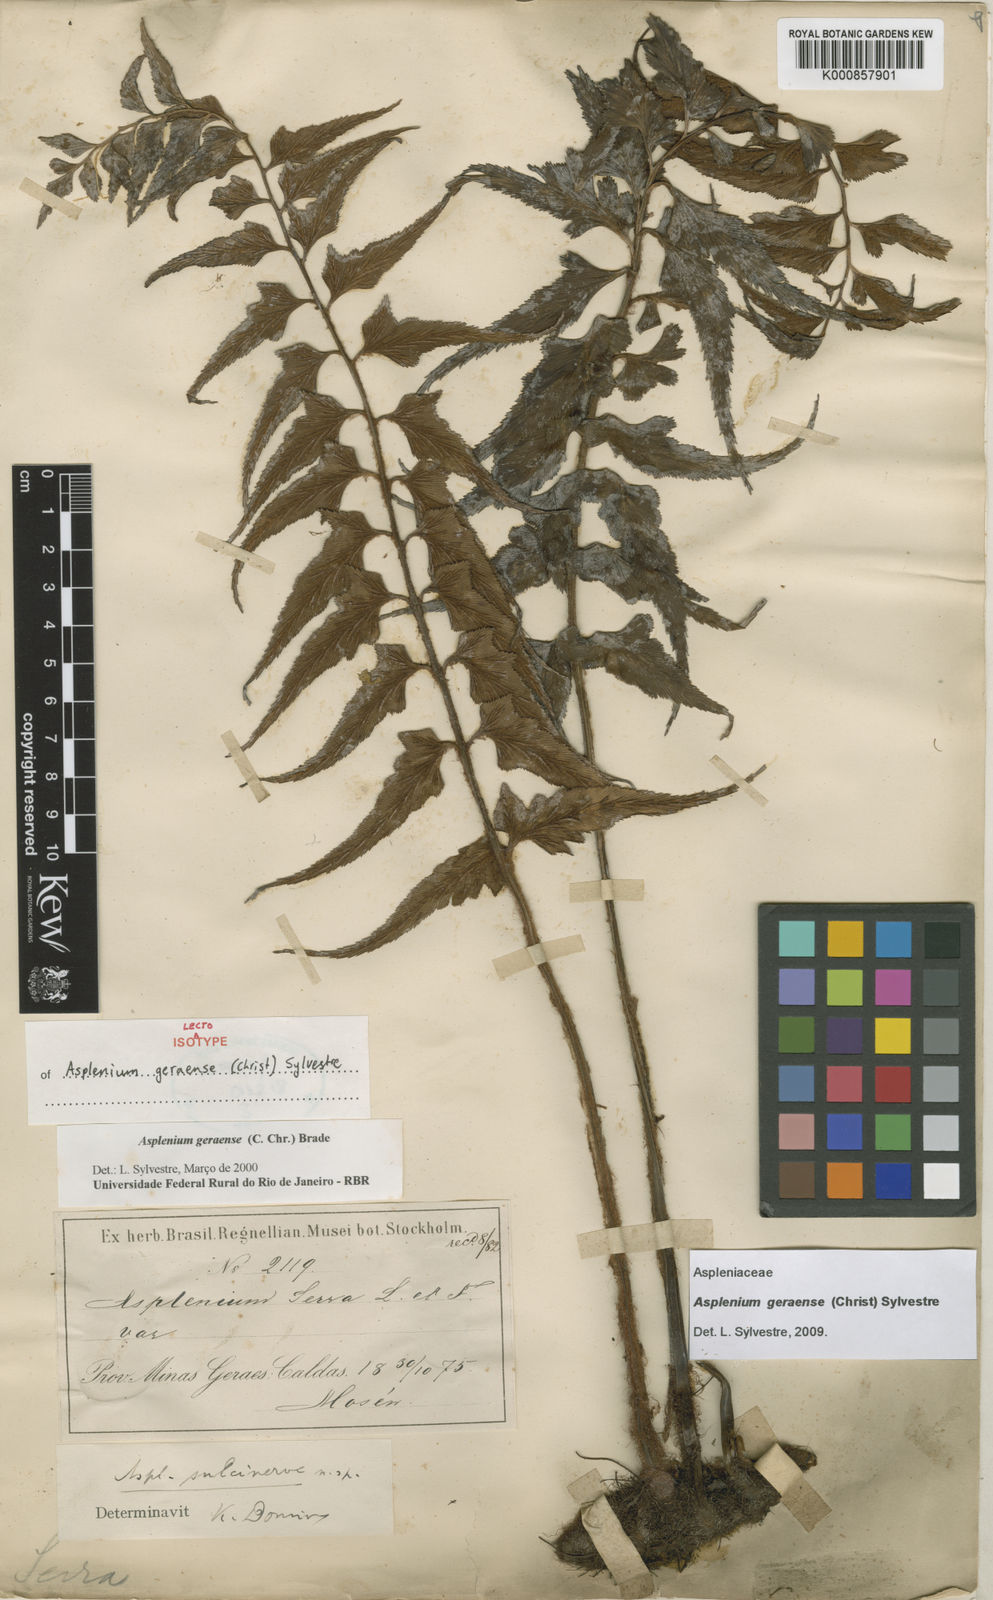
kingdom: Plantae
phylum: Tracheophyta
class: Polypodiopsida
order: Polypodiales
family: Aspleniaceae
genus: Asplenium
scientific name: Asplenium geraense
